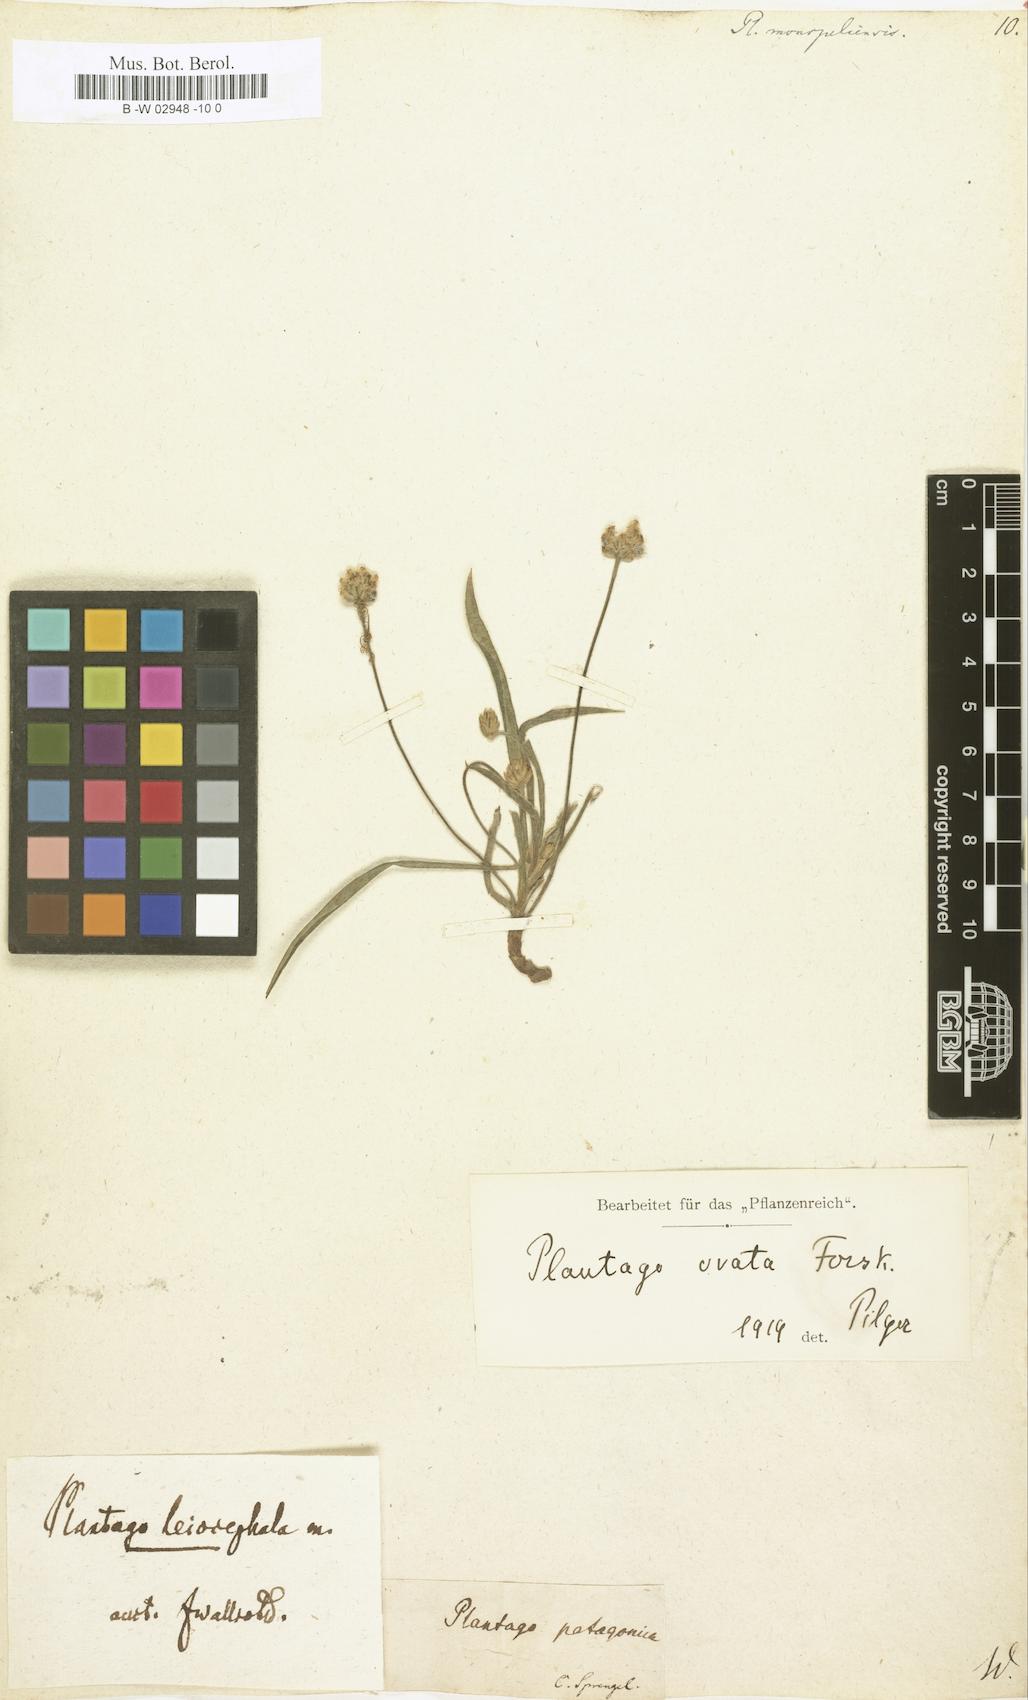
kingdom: Plantae
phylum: Tracheophyta
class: Magnoliopsida
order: Lamiales
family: Plantaginaceae
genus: Plantago
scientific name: Plantago ovata
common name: Blond plantain
